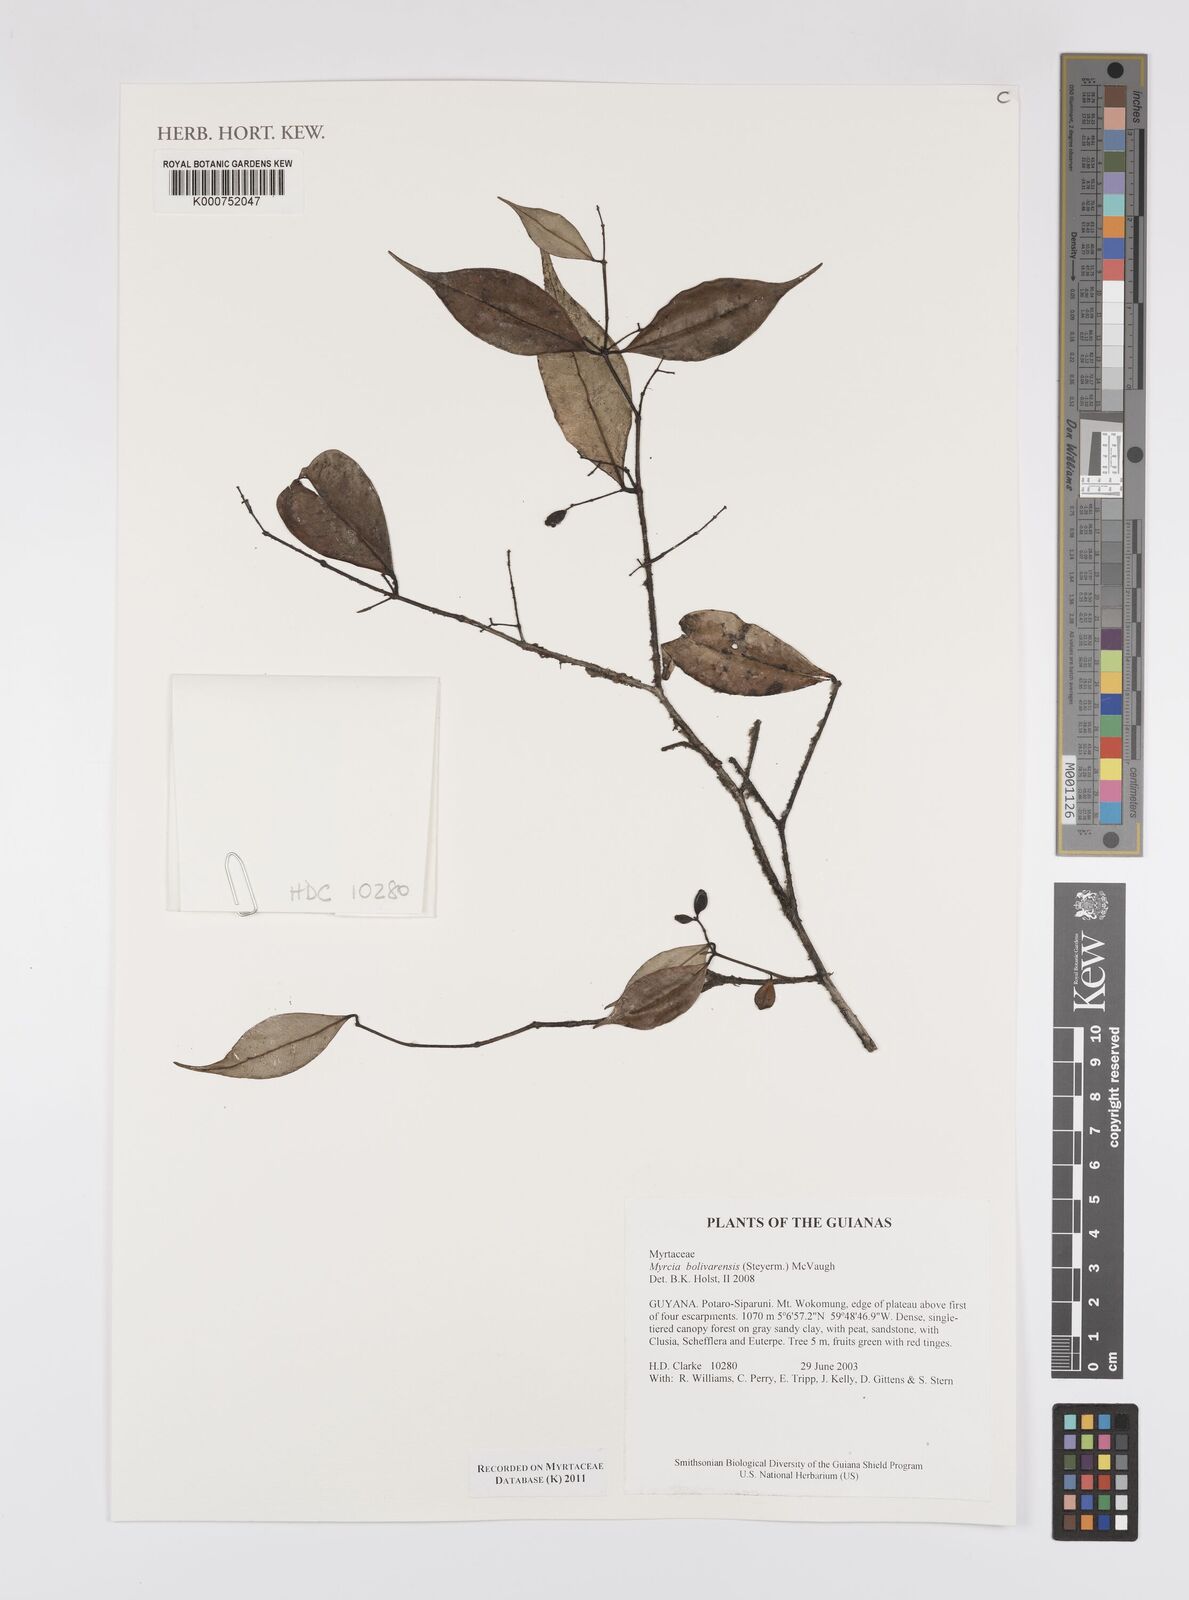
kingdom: Plantae
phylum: Tracheophyta
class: Magnoliopsida
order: Myrtales
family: Myrtaceae
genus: Myrcia
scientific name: Myrcia bolivarensis
